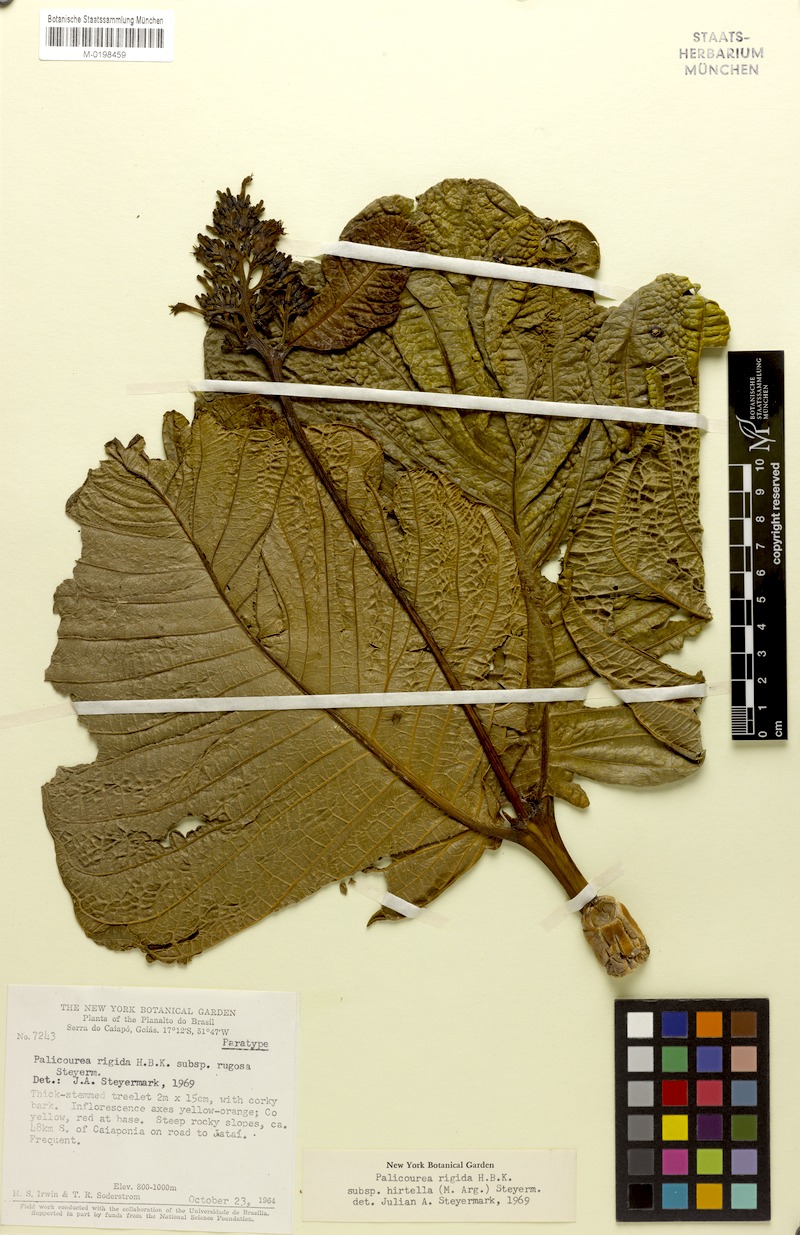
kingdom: Plantae
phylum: Tracheophyta
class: Magnoliopsida
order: Gentianales
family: Rubiaceae
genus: Palicourea
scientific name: Palicourea rigida
